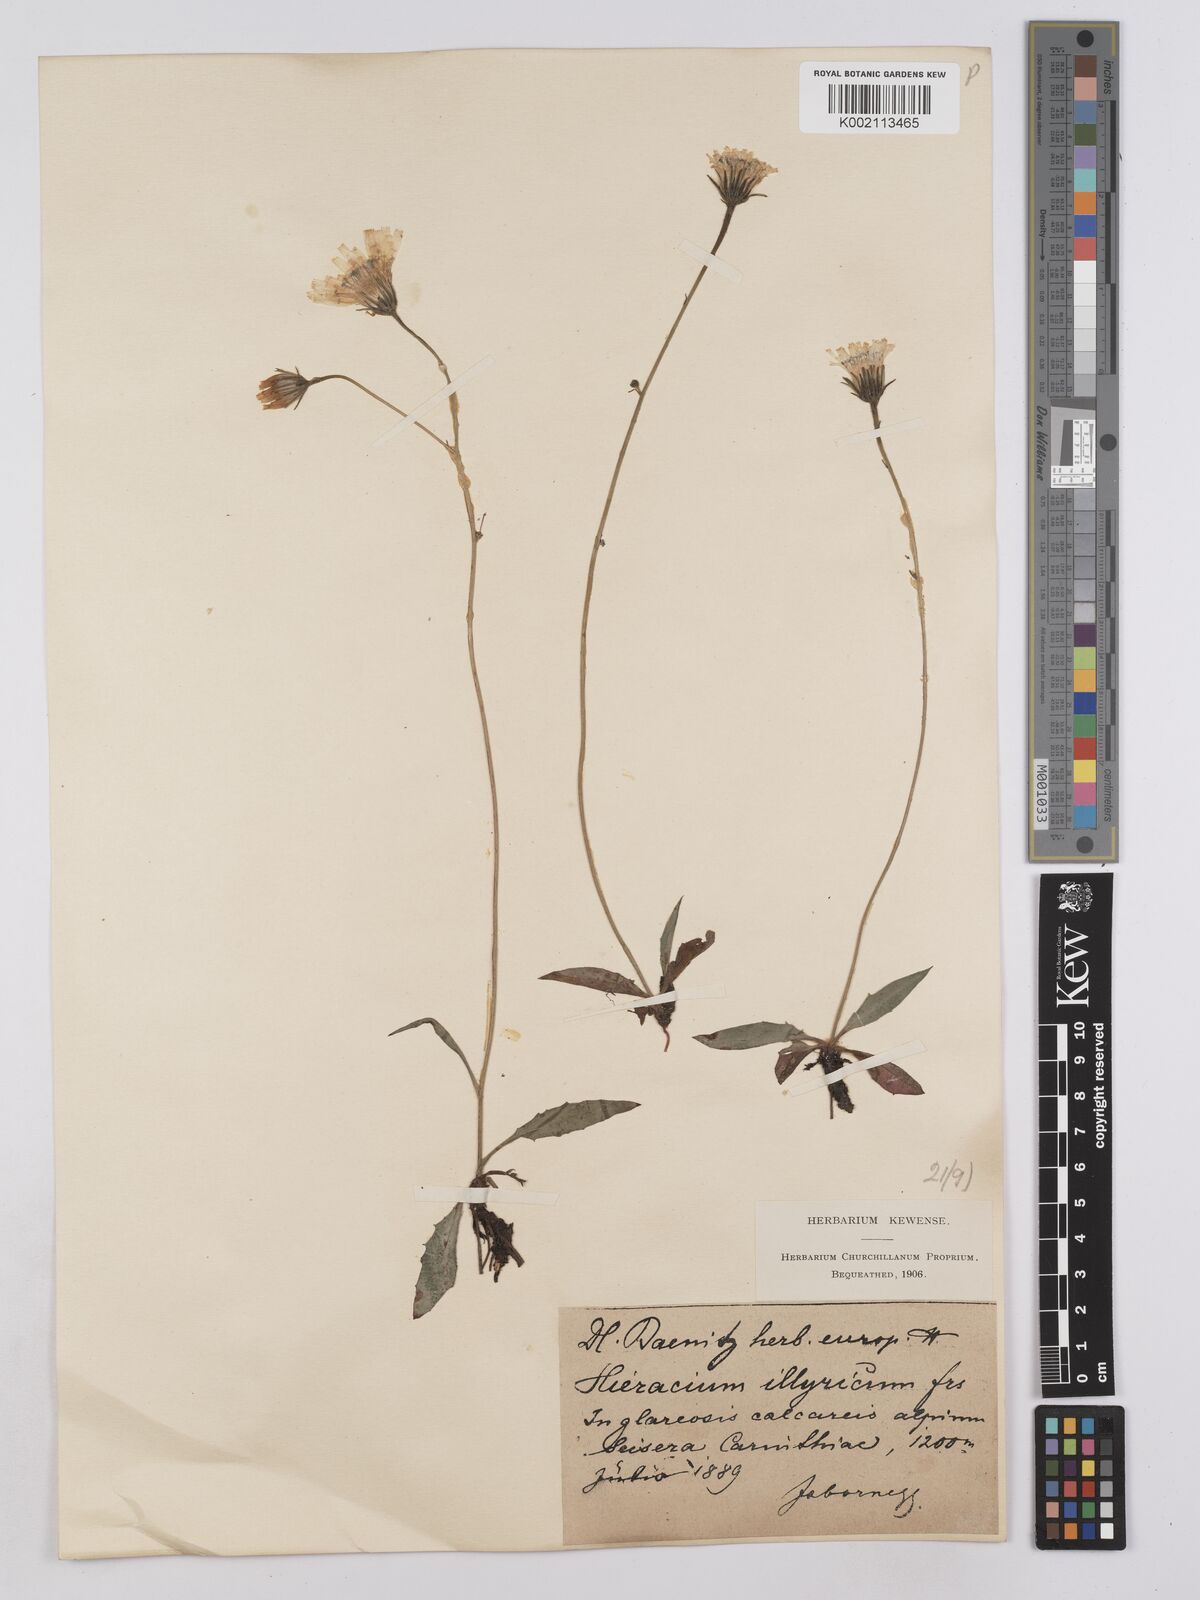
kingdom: Plantae
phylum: Tracheophyta
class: Magnoliopsida
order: Asterales
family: Asteraceae
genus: Hieracium
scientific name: Hieracium calcareum
